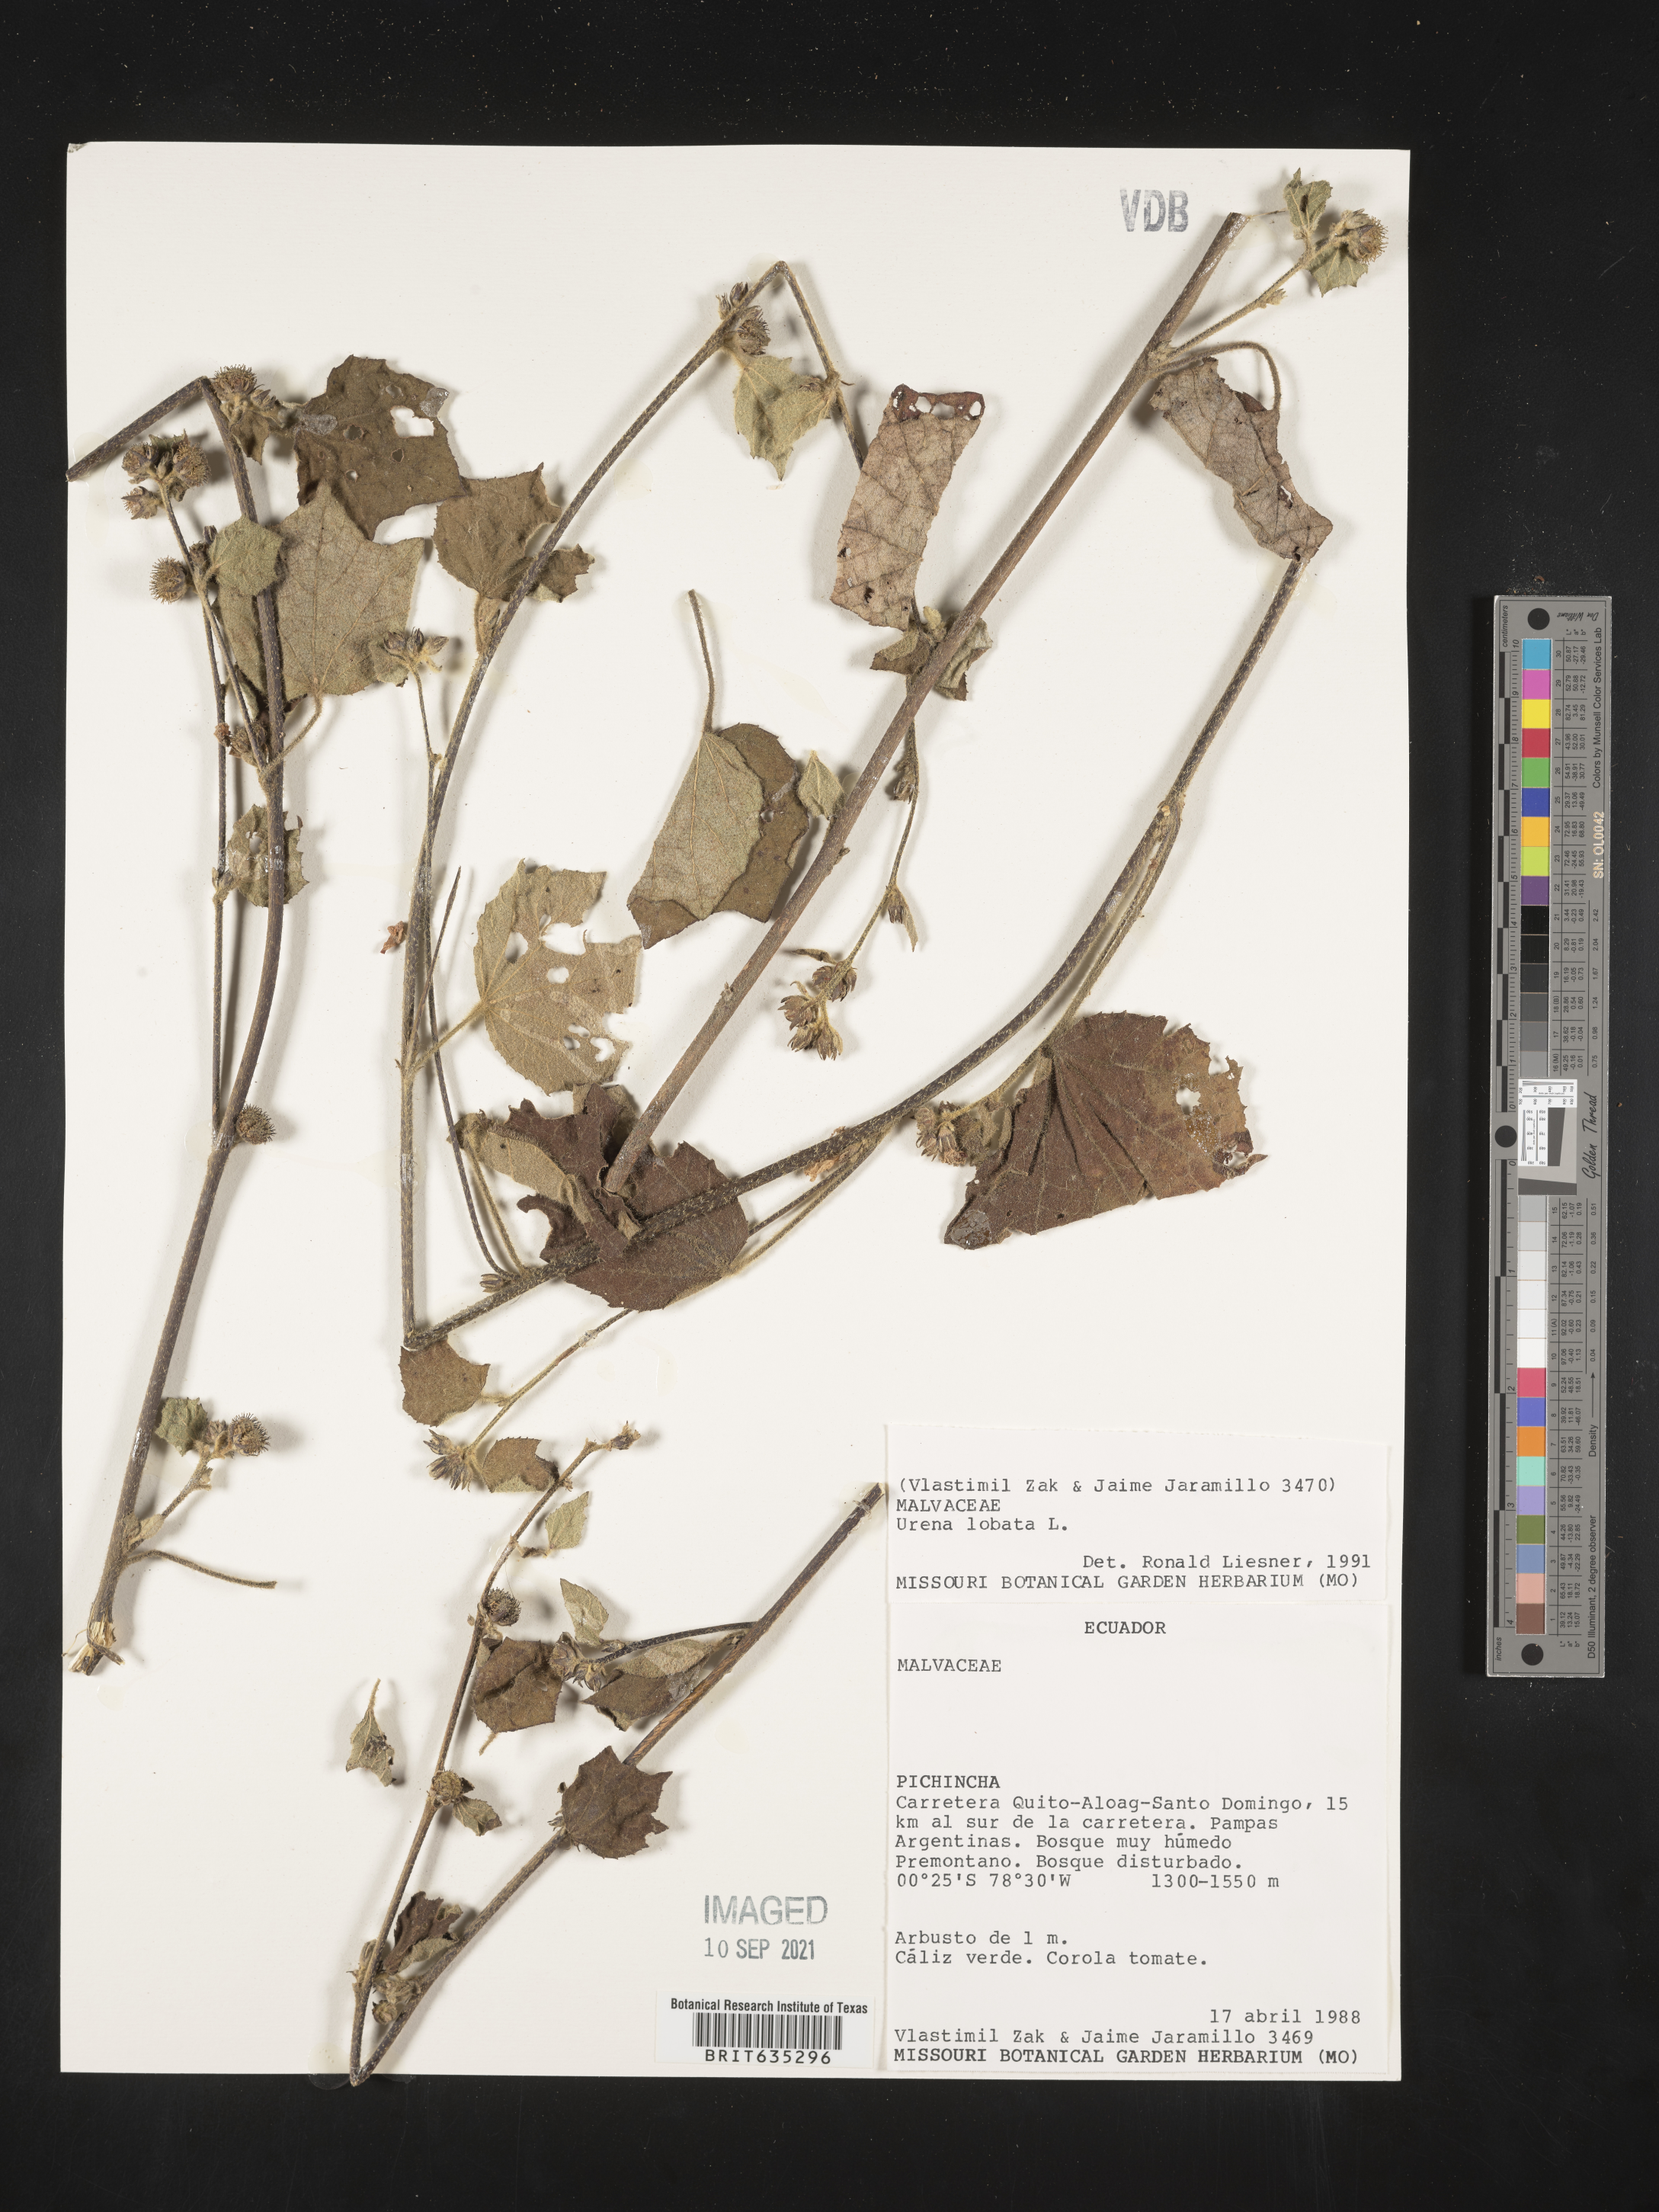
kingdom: Plantae
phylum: Tracheophyta
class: Magnoliopsida
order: Malvales
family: Malvaceae
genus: Urena
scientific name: Urena
